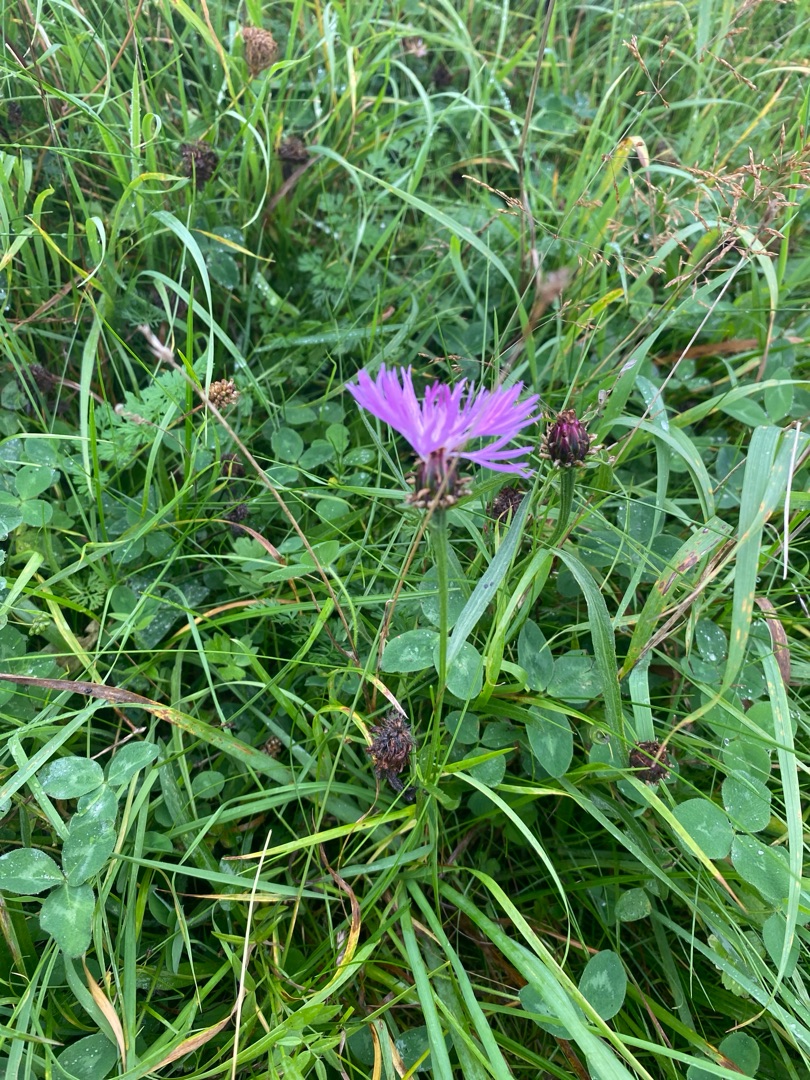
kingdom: Plantae
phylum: Tracheophyta
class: Magnoliopsida
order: Asterales
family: Asteraceae
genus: Centaurea
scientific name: Centaurea jacea
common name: Almindelig knopurt
